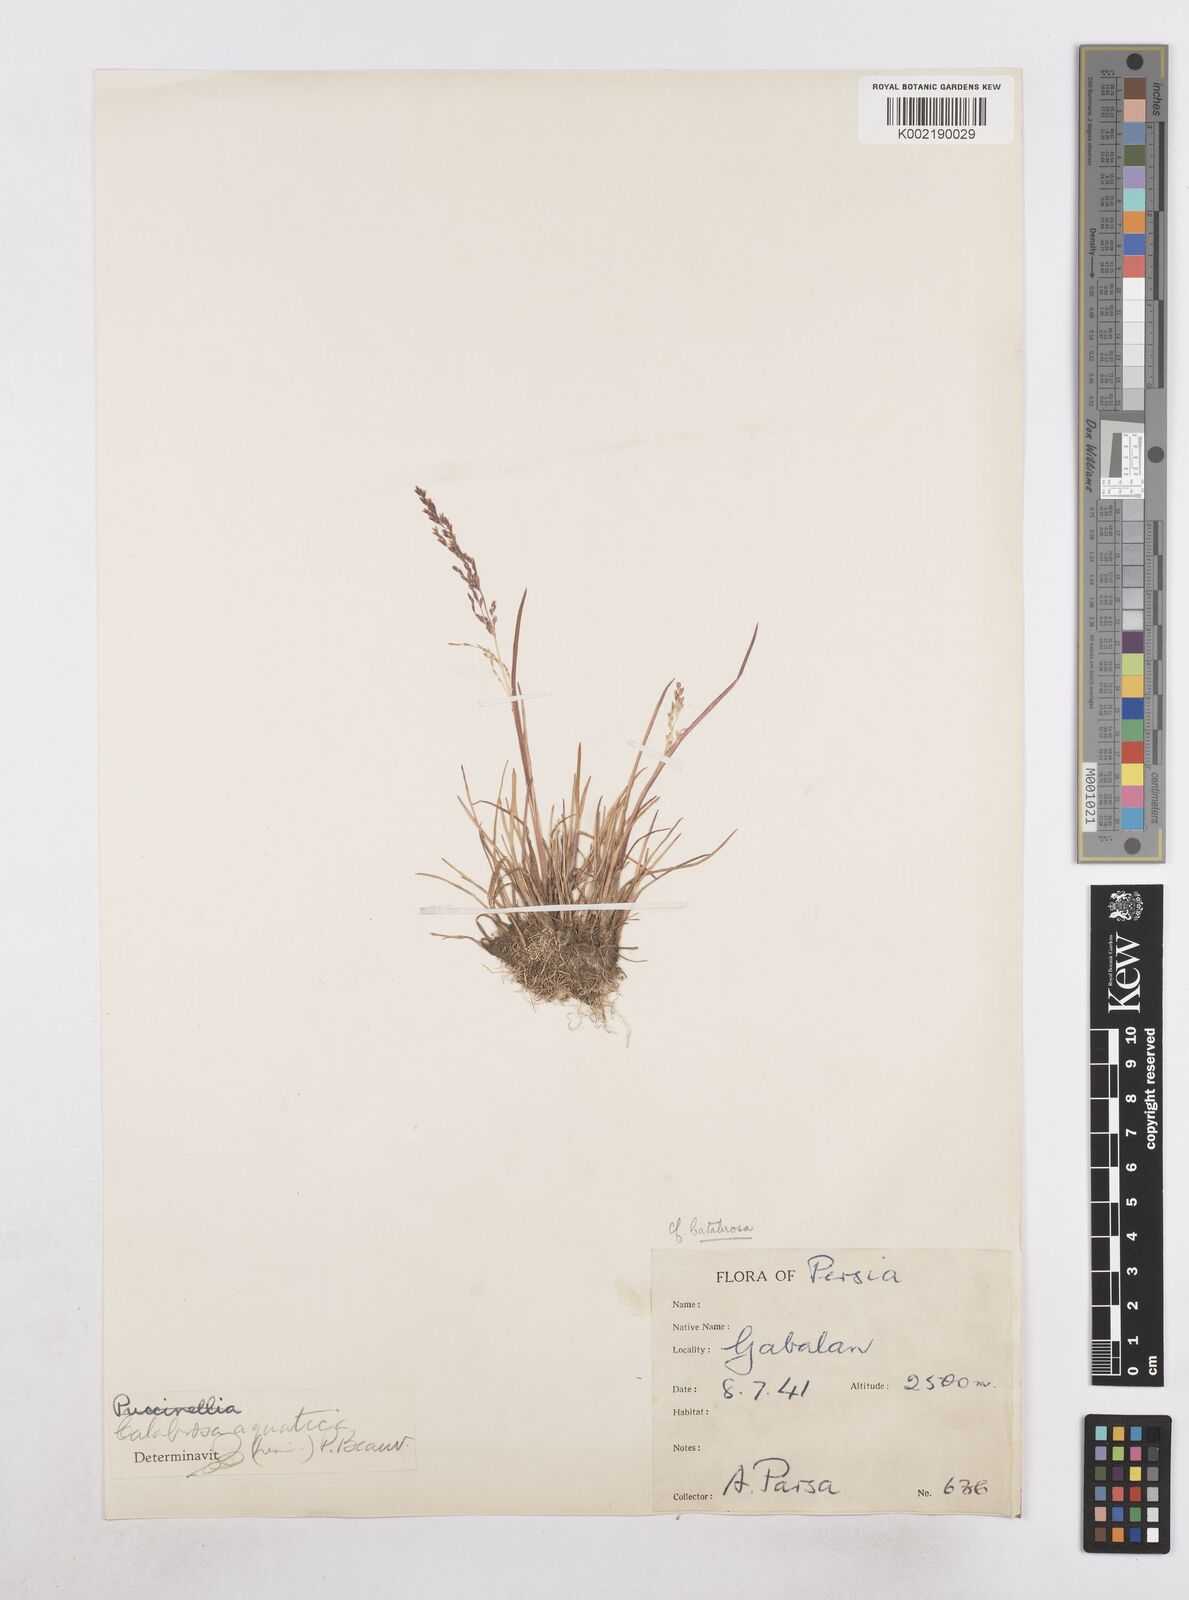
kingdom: Plantae
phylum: Tracheophyta
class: Liliopsida
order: Poales
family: Poaceae
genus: Catabrosa
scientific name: Catabrosa aquatica
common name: Whorl-grass
